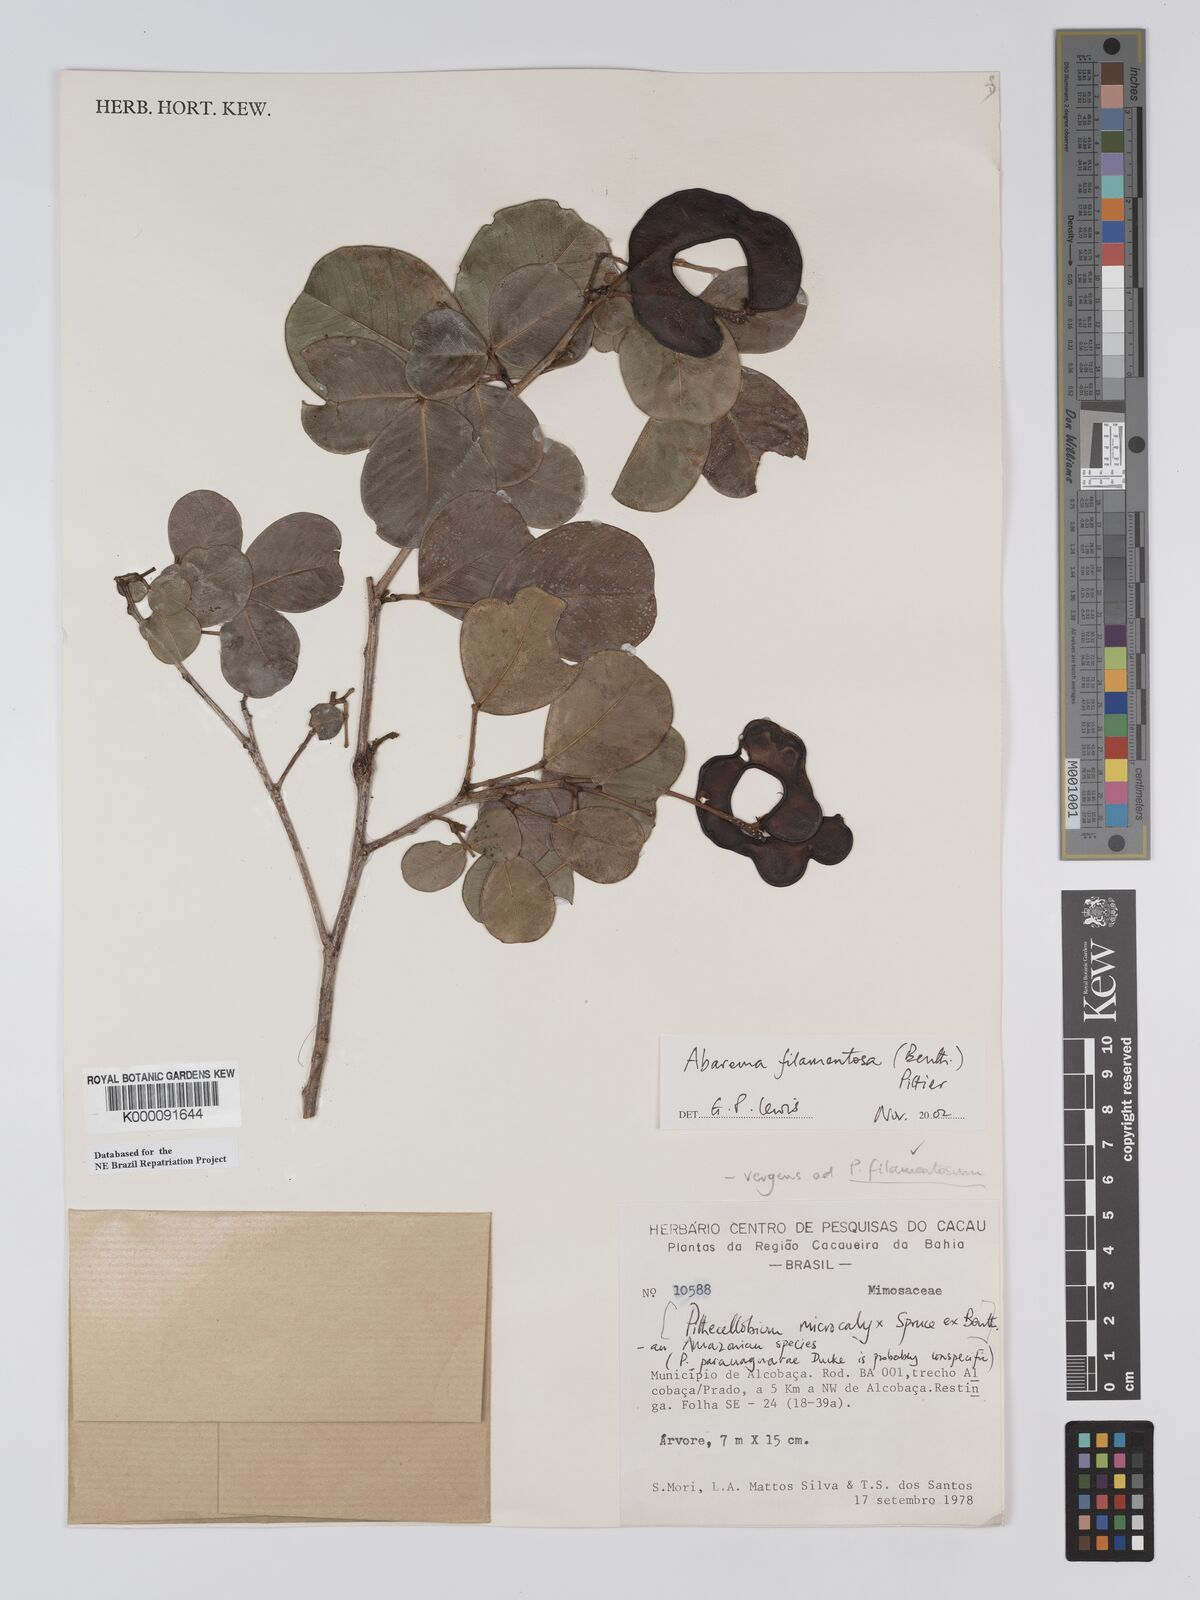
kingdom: Plantae
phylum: Tracheophyta
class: Magnoliopsida
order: Fabales
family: Fabaceae
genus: Jupunba
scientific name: Jupunba filamentosa
